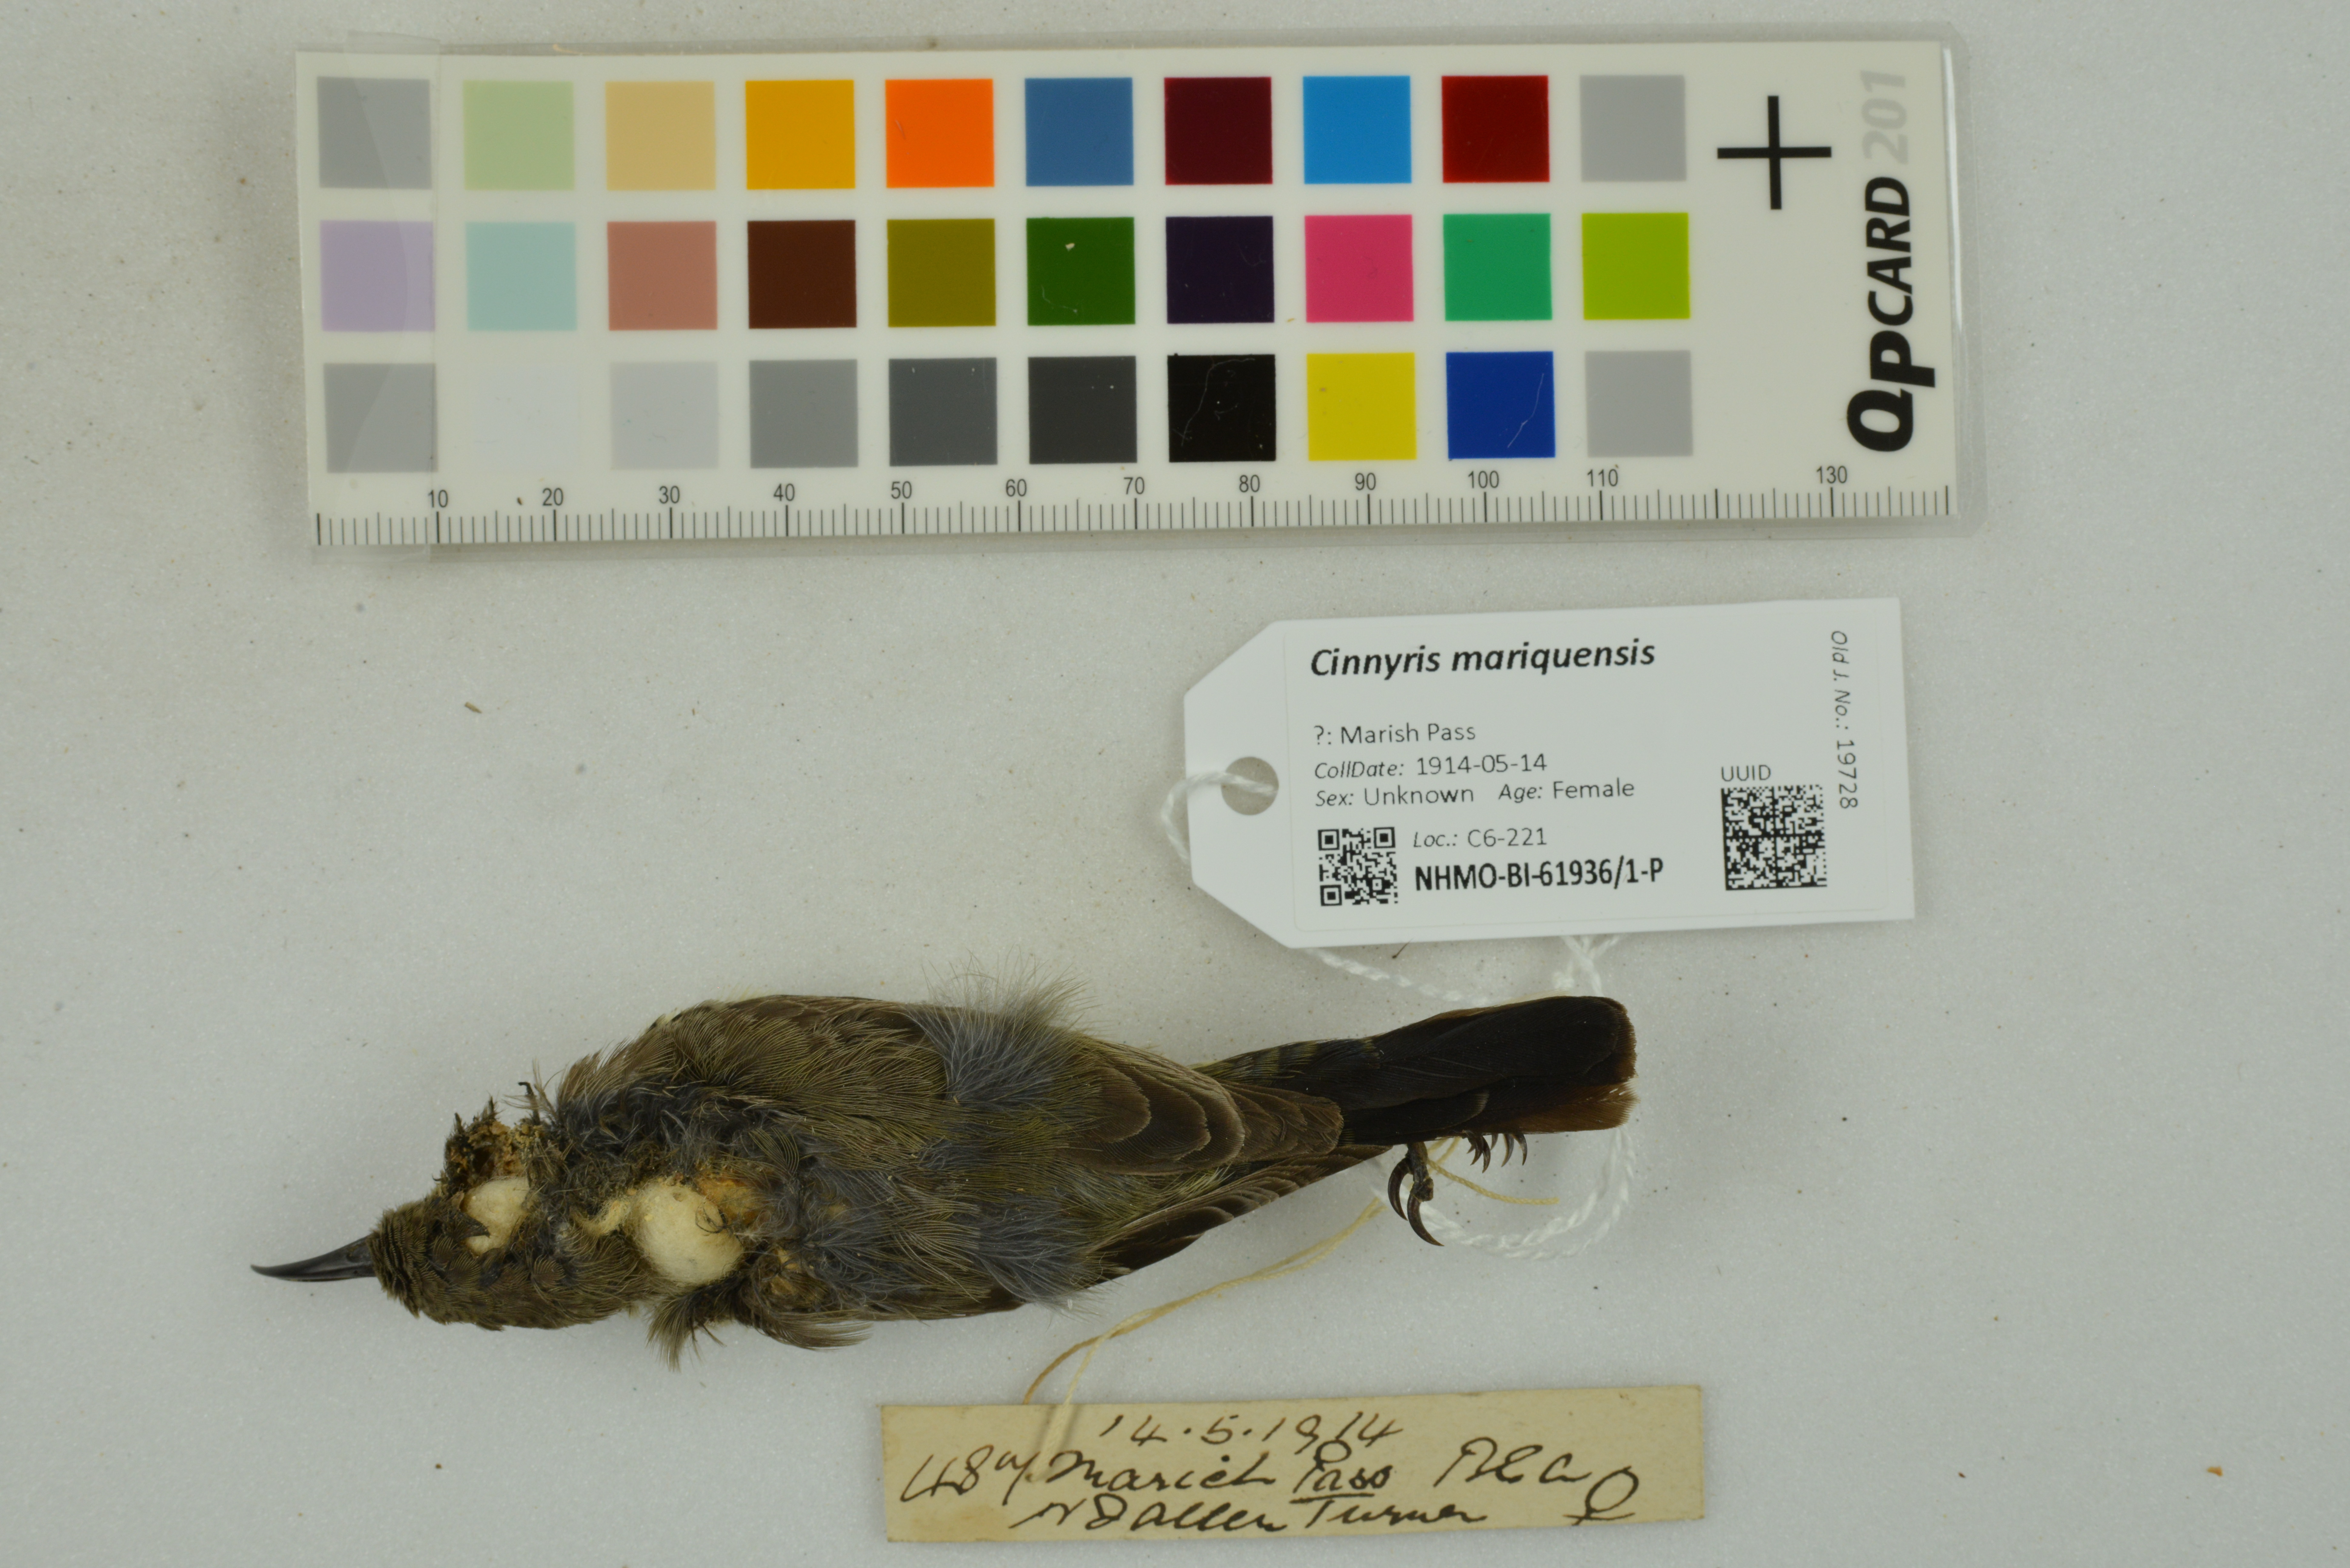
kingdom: Animalia
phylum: Chordata
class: Aves
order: Passeriformes
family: Nectariniidae
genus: Cinnyris
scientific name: Cinnyris mariquensis
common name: Marico sunbird
